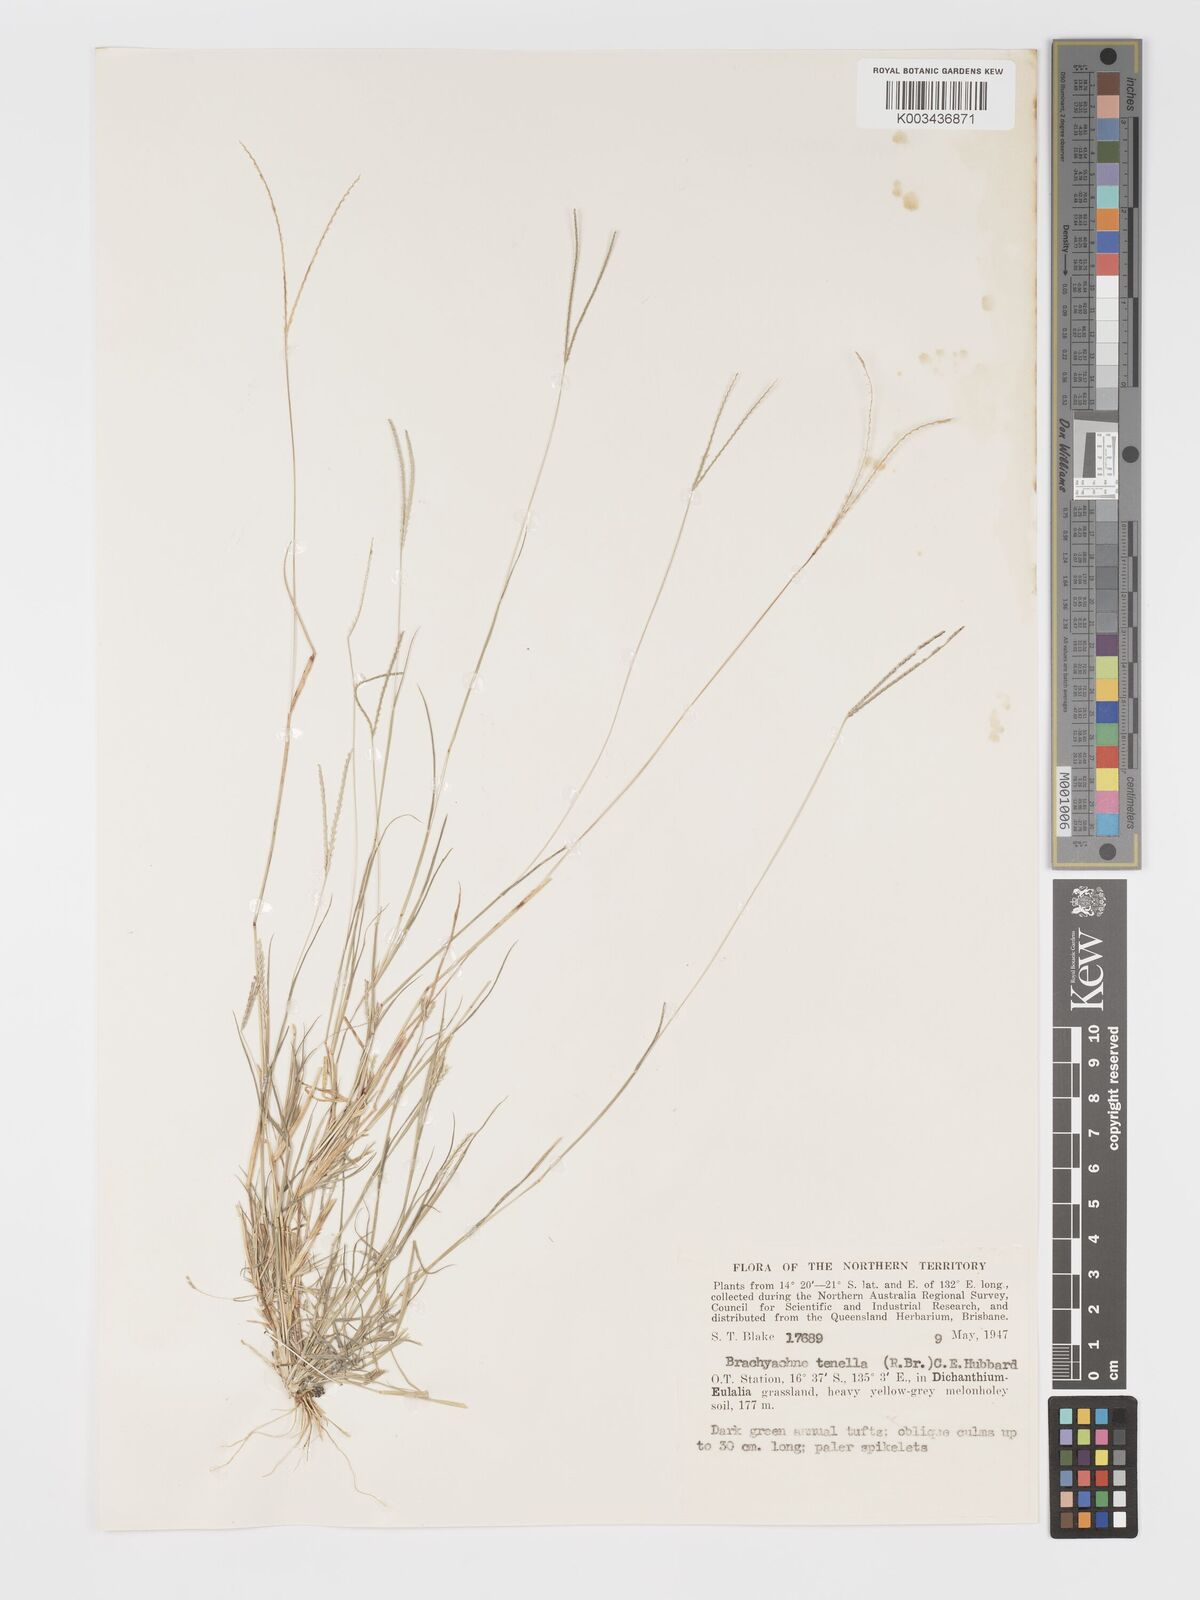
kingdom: Plantae
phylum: Tracheophyta
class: Liliopsida
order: Poales
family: Poaceae
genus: Cynodon
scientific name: Cynodon tenellus
